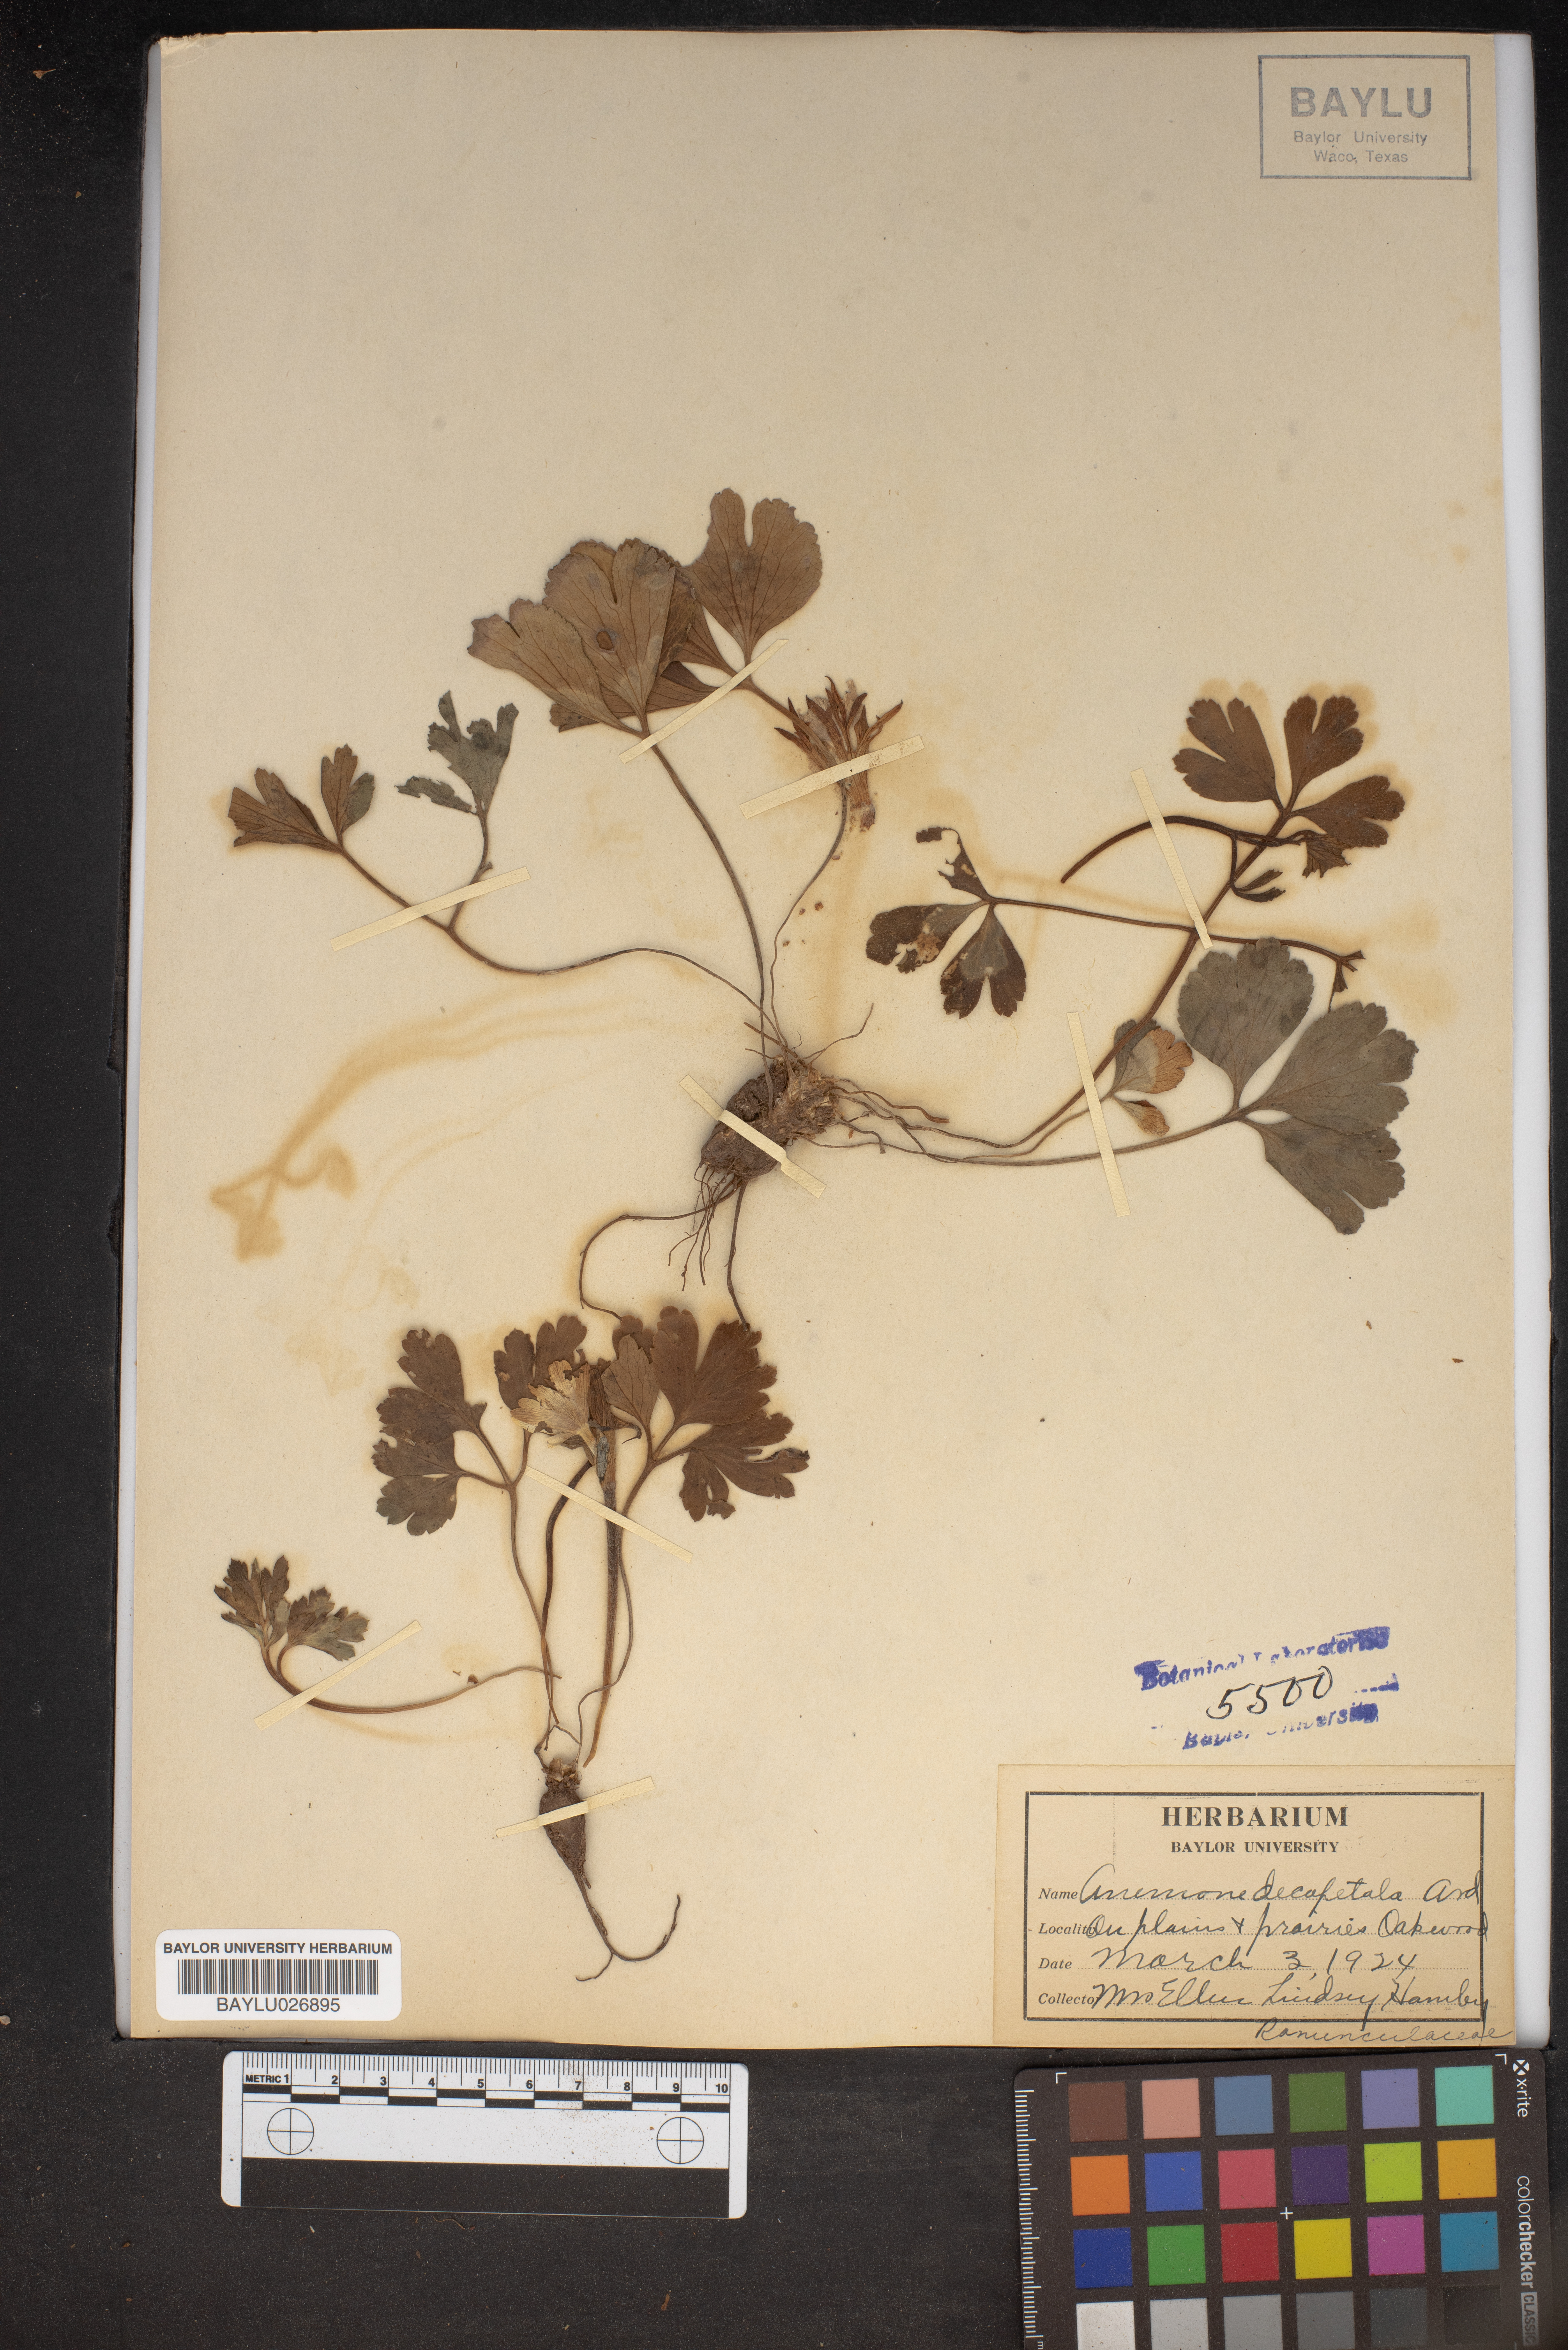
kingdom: Plantae
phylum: Tracheophyta
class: Magnoliopsida
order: Ranunculales
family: Ranunculaceae
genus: Anemone
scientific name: Anemone decapetala
